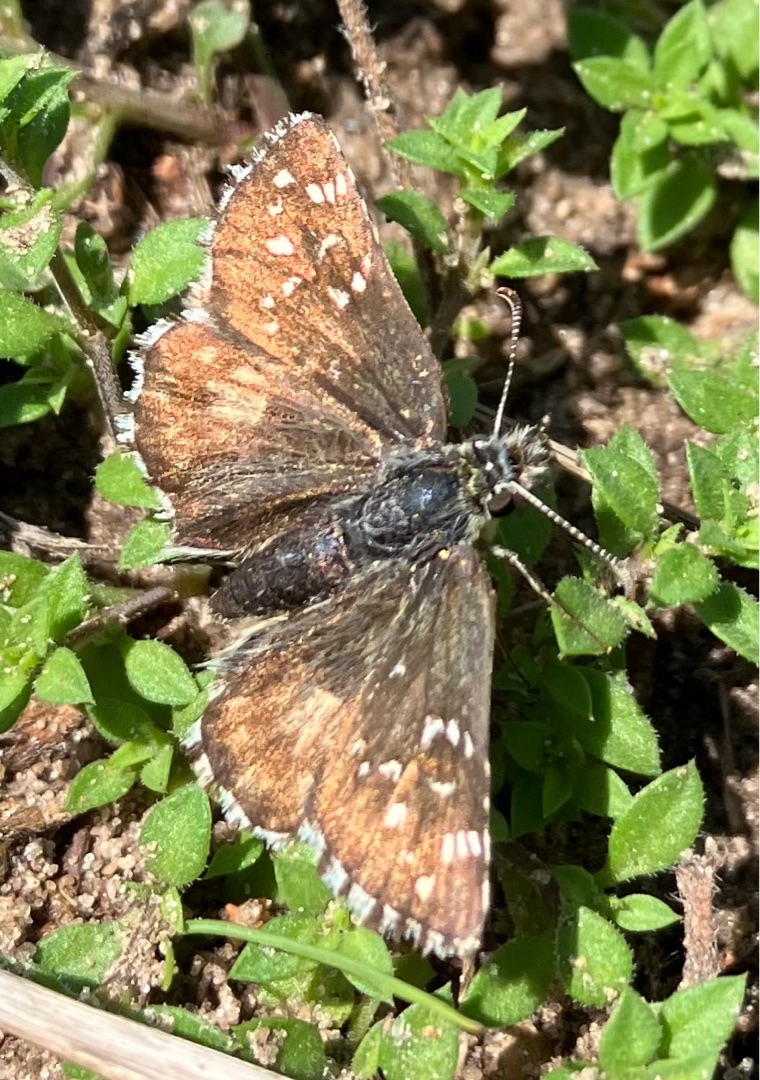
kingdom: Animalia
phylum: Arthropoda
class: Insecta
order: Lepidoptera
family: Hesperiidae
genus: Pyrgus
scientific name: Pyrgus armoricanus
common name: Fransk bredpande
